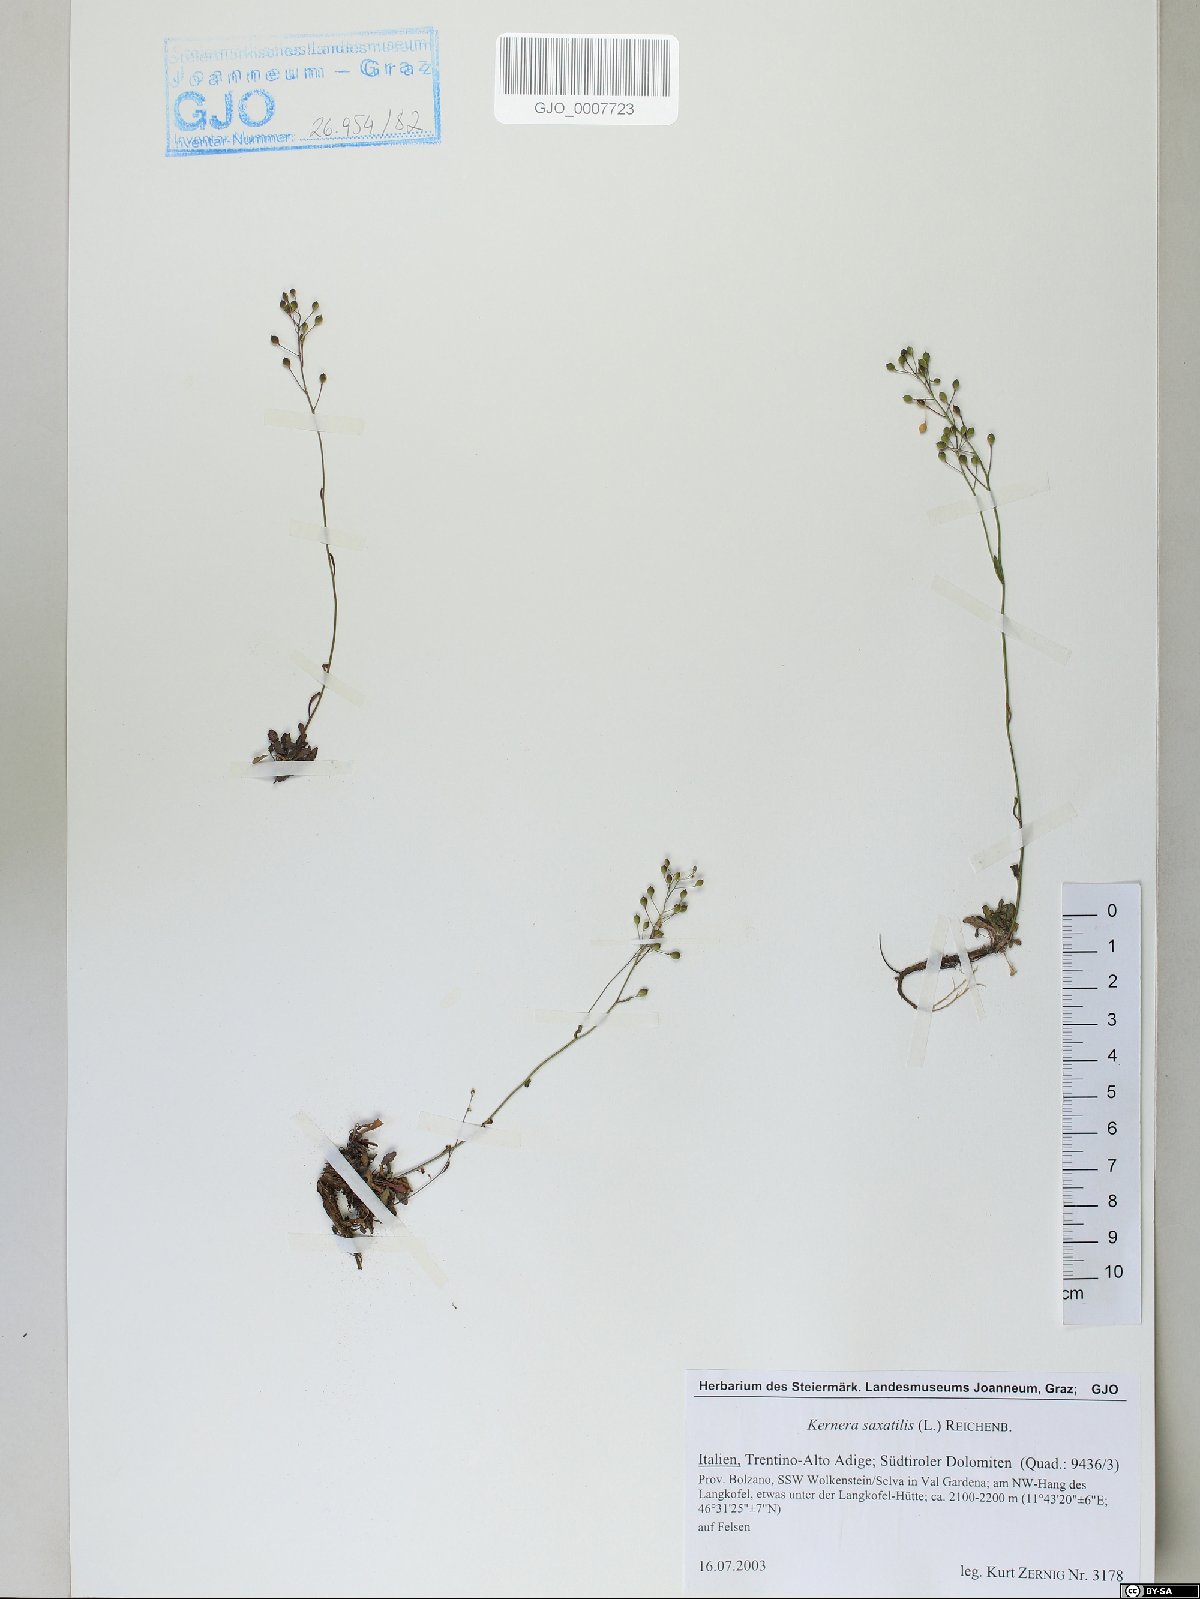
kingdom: Plantae
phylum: Tracheophyta
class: Magnoliopsida
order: Brassicales
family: Brassicaceae
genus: Kernera
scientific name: Kernera saxatilis
